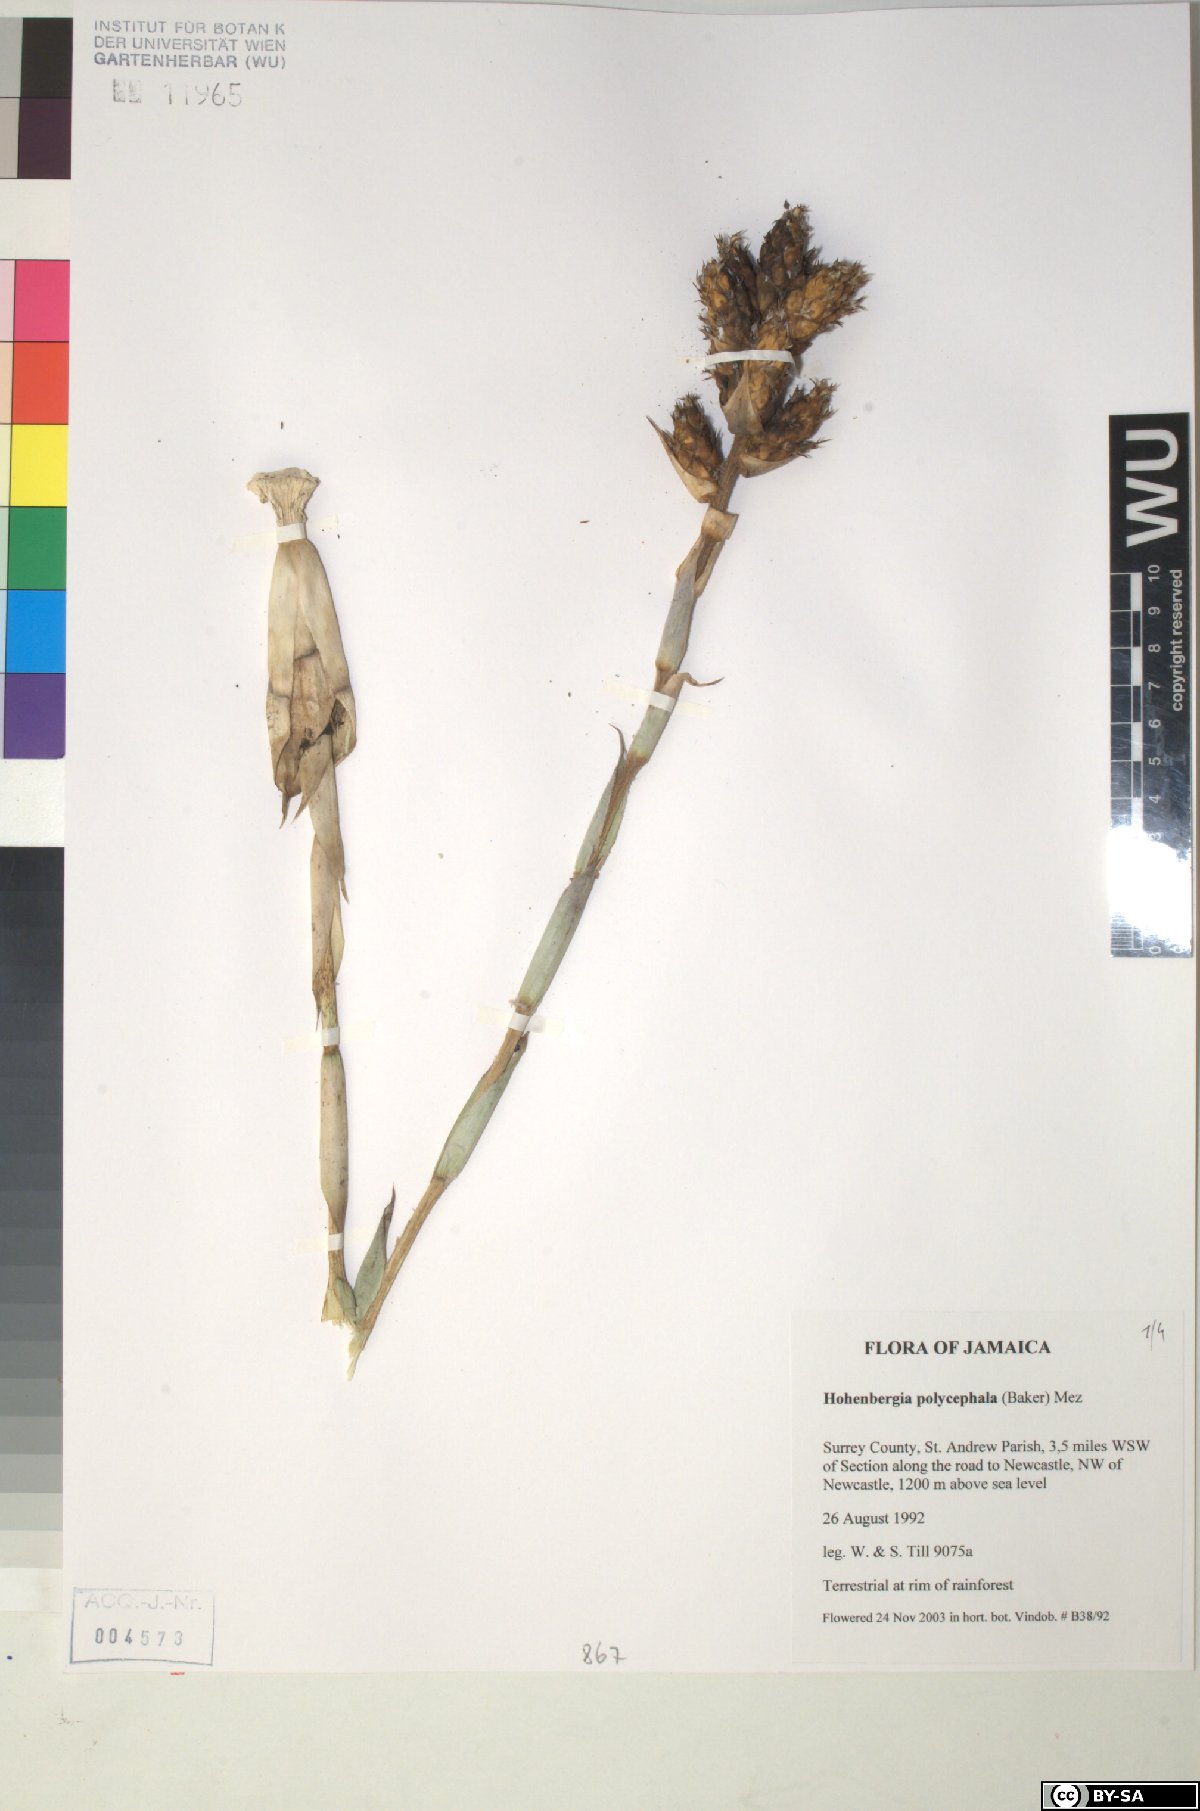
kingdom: Plantae
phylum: Tracheophyta
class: Liliopsida
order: Poales
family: Bromeliaceae
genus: Wittmackia
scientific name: Wittmackia polycephala
